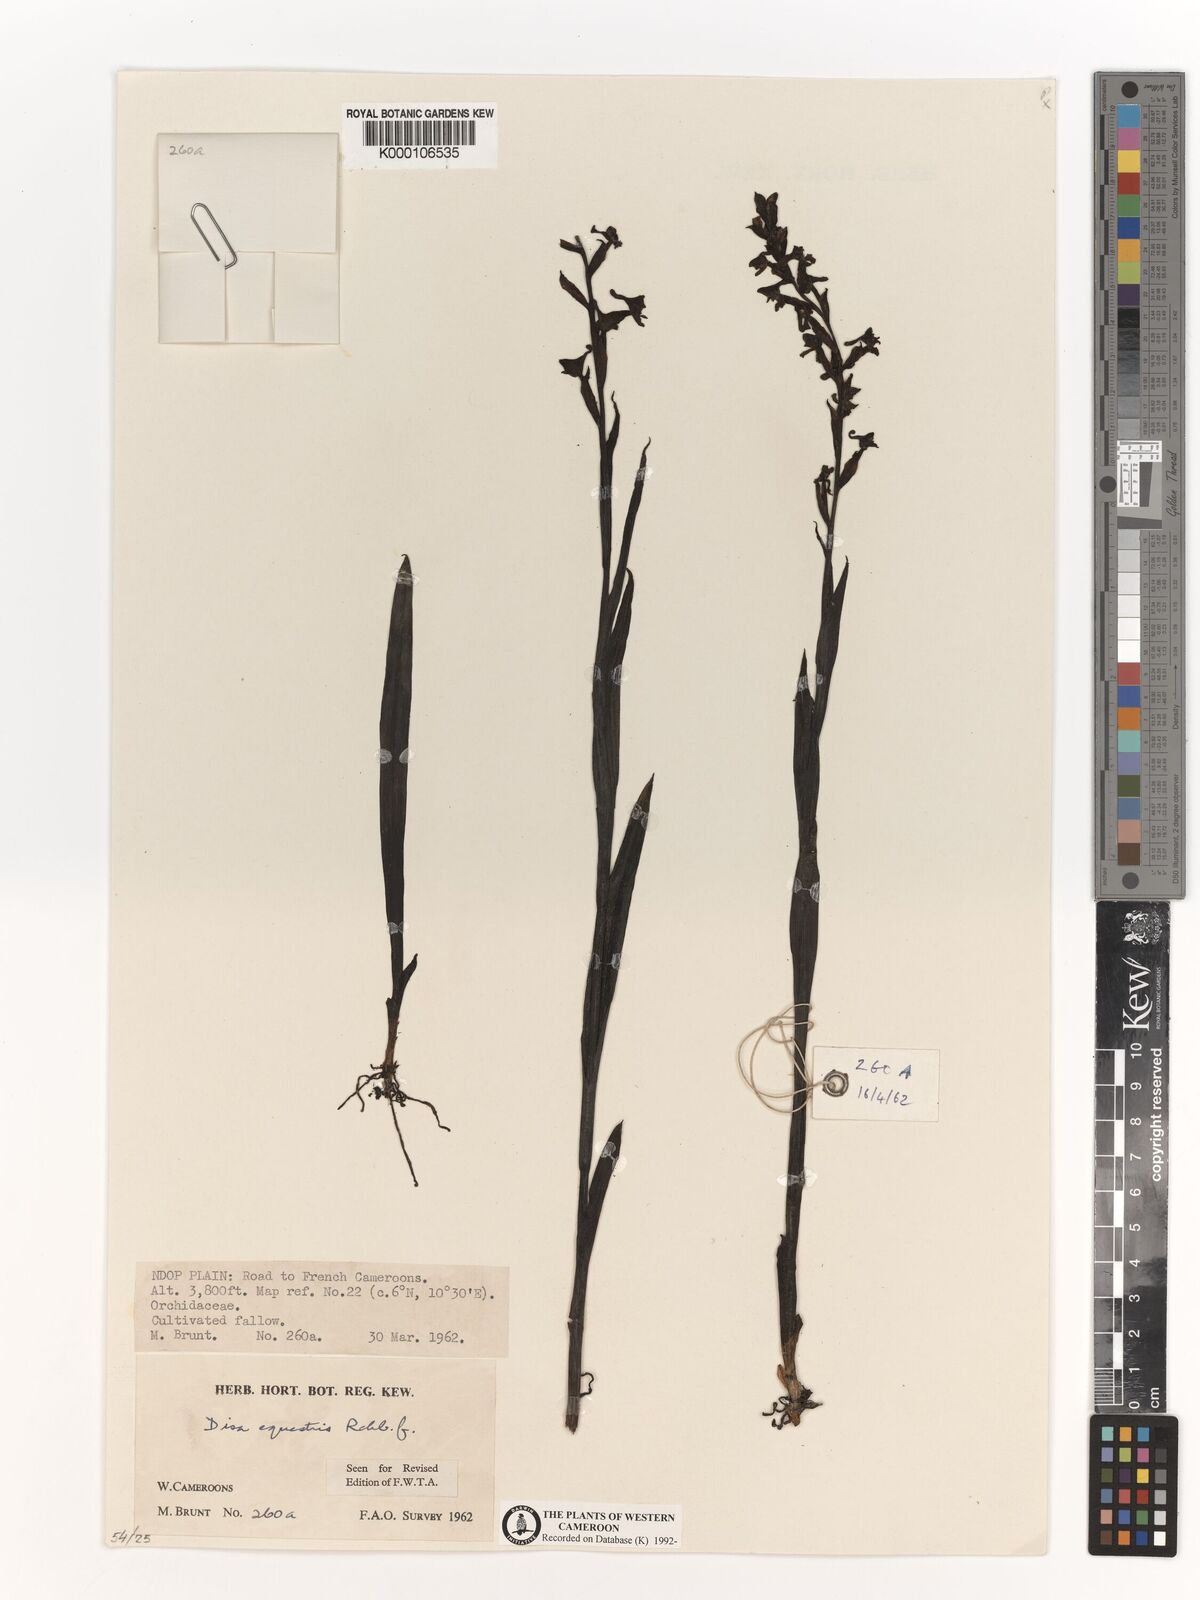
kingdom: Plantae
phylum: Tracheophyta
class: Liliopsida
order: Asparagales
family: Orchidaceae
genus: Disa
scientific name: Disa equestris
